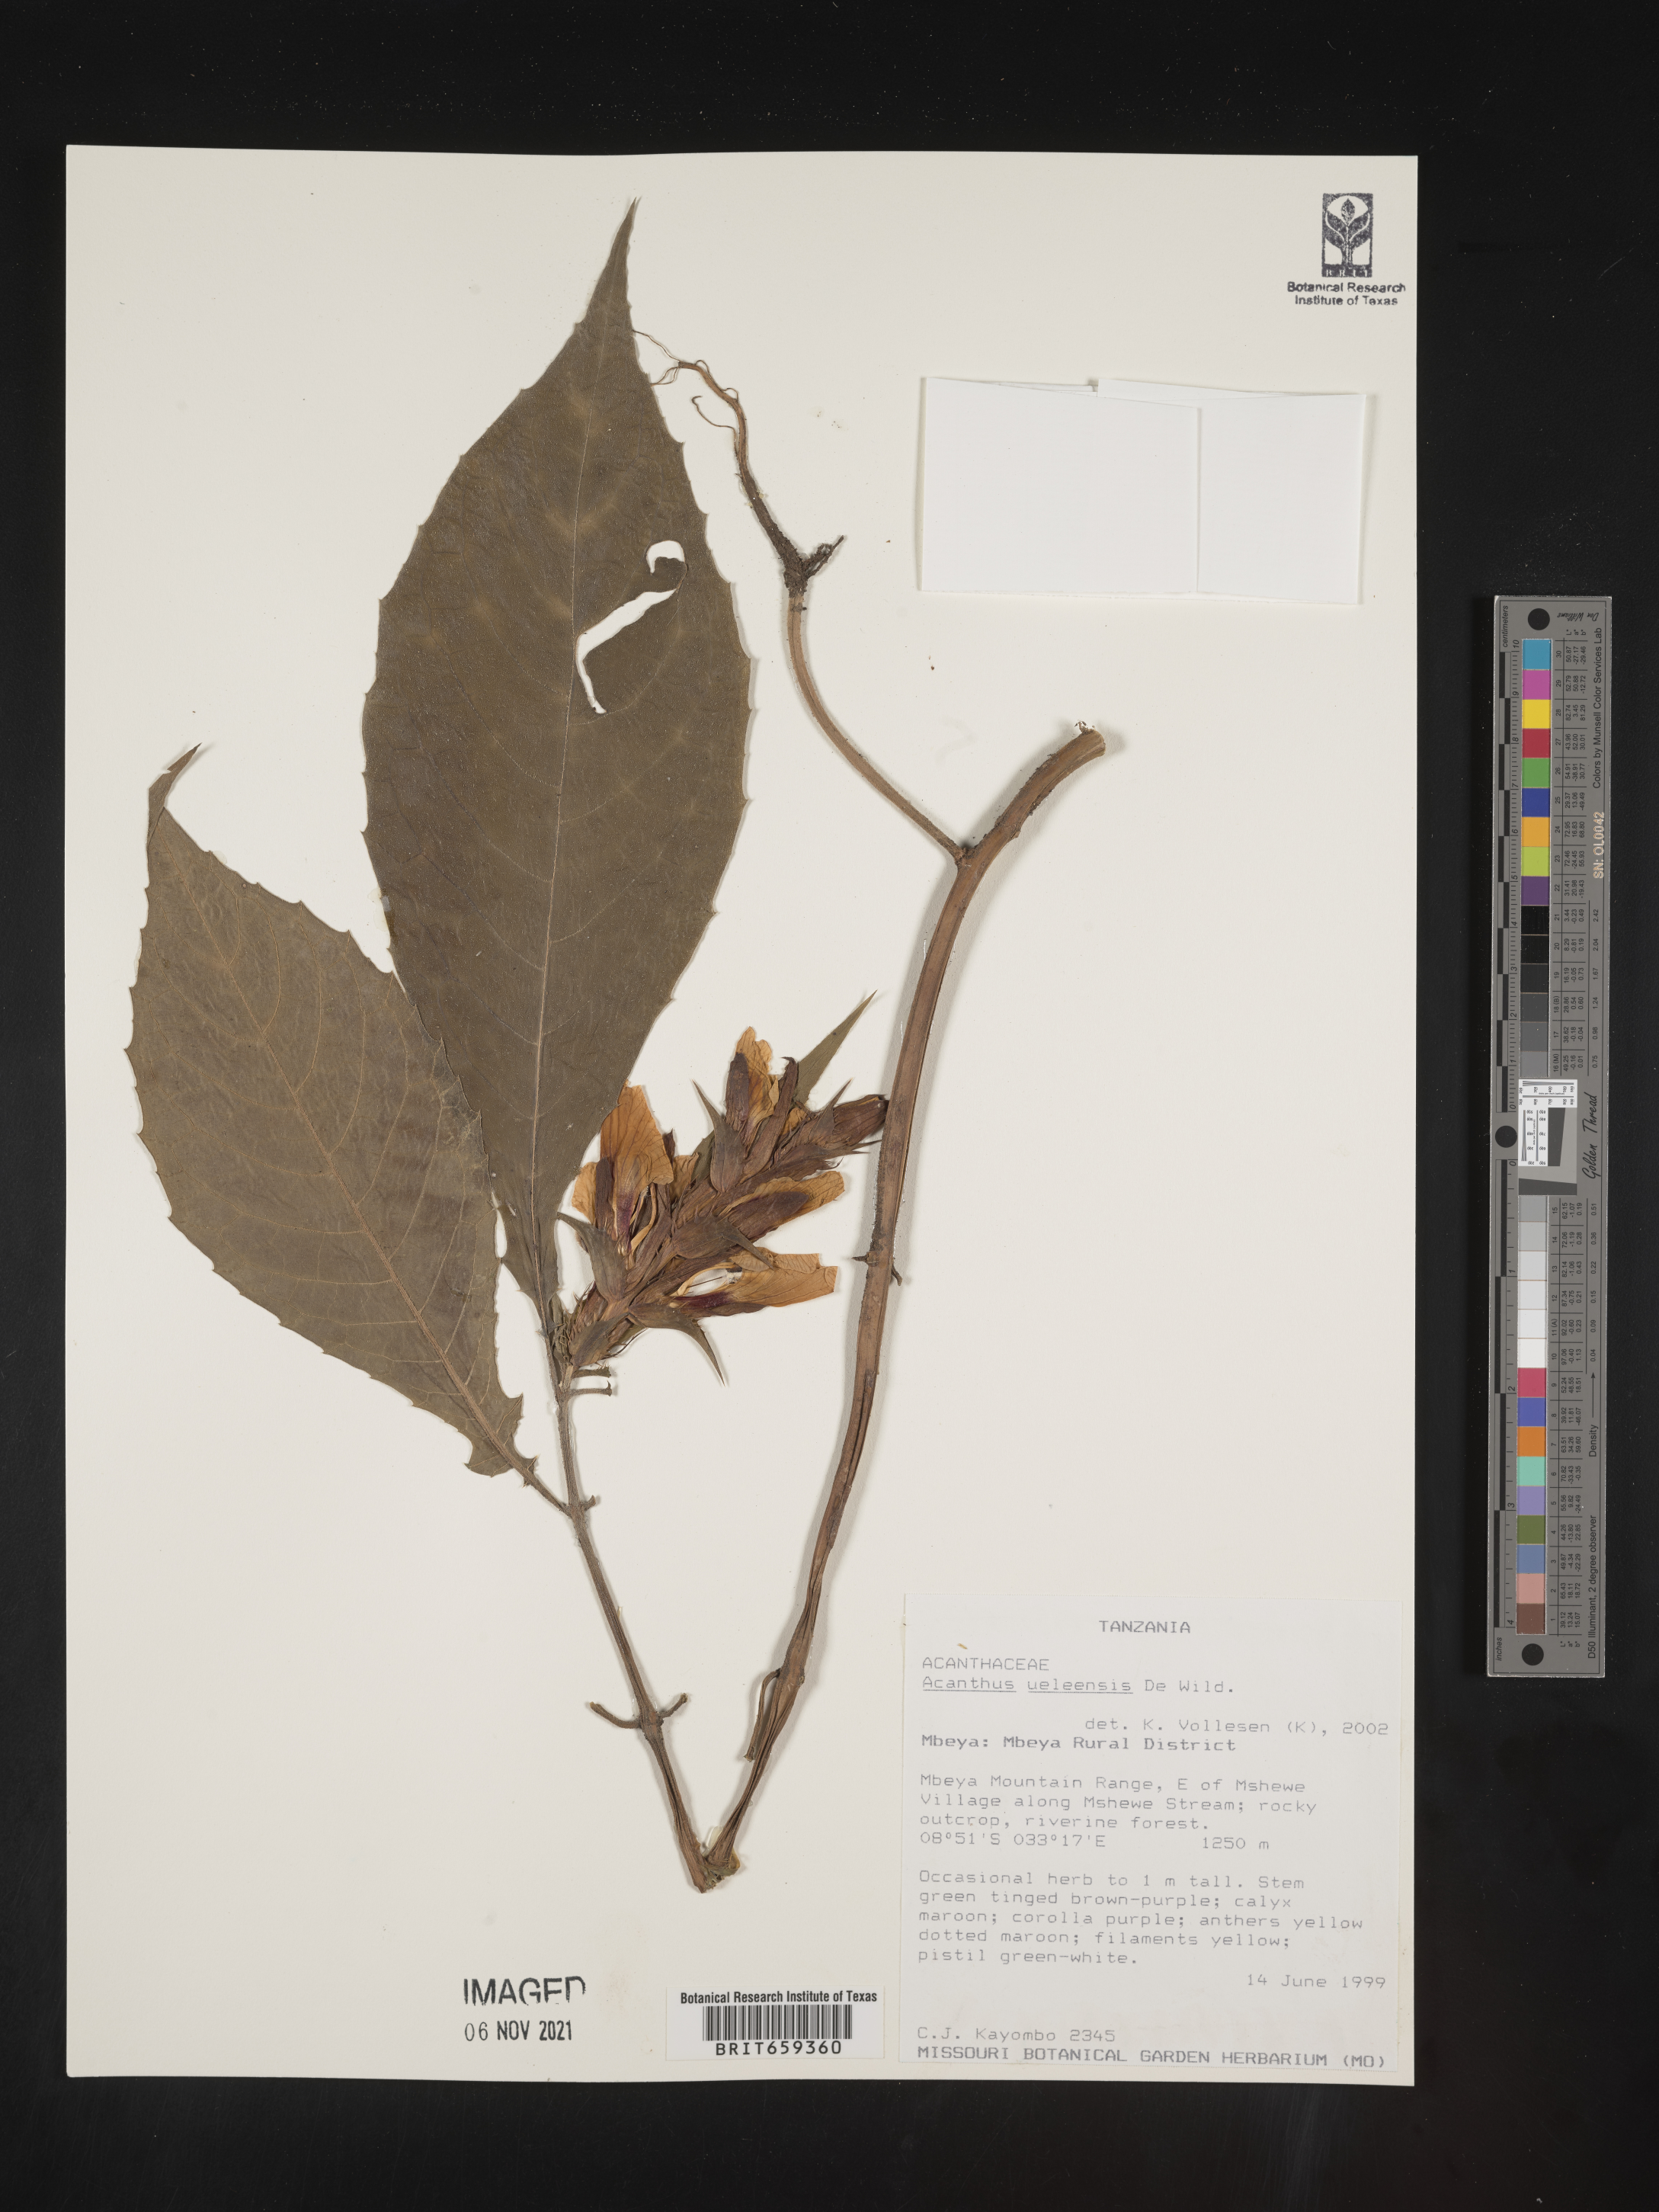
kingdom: Plantae
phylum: Tracheophyta
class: Magnoliopsida
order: Lamiales
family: Acanthaceae
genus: Acanthus
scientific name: Acanthus ueleensis
